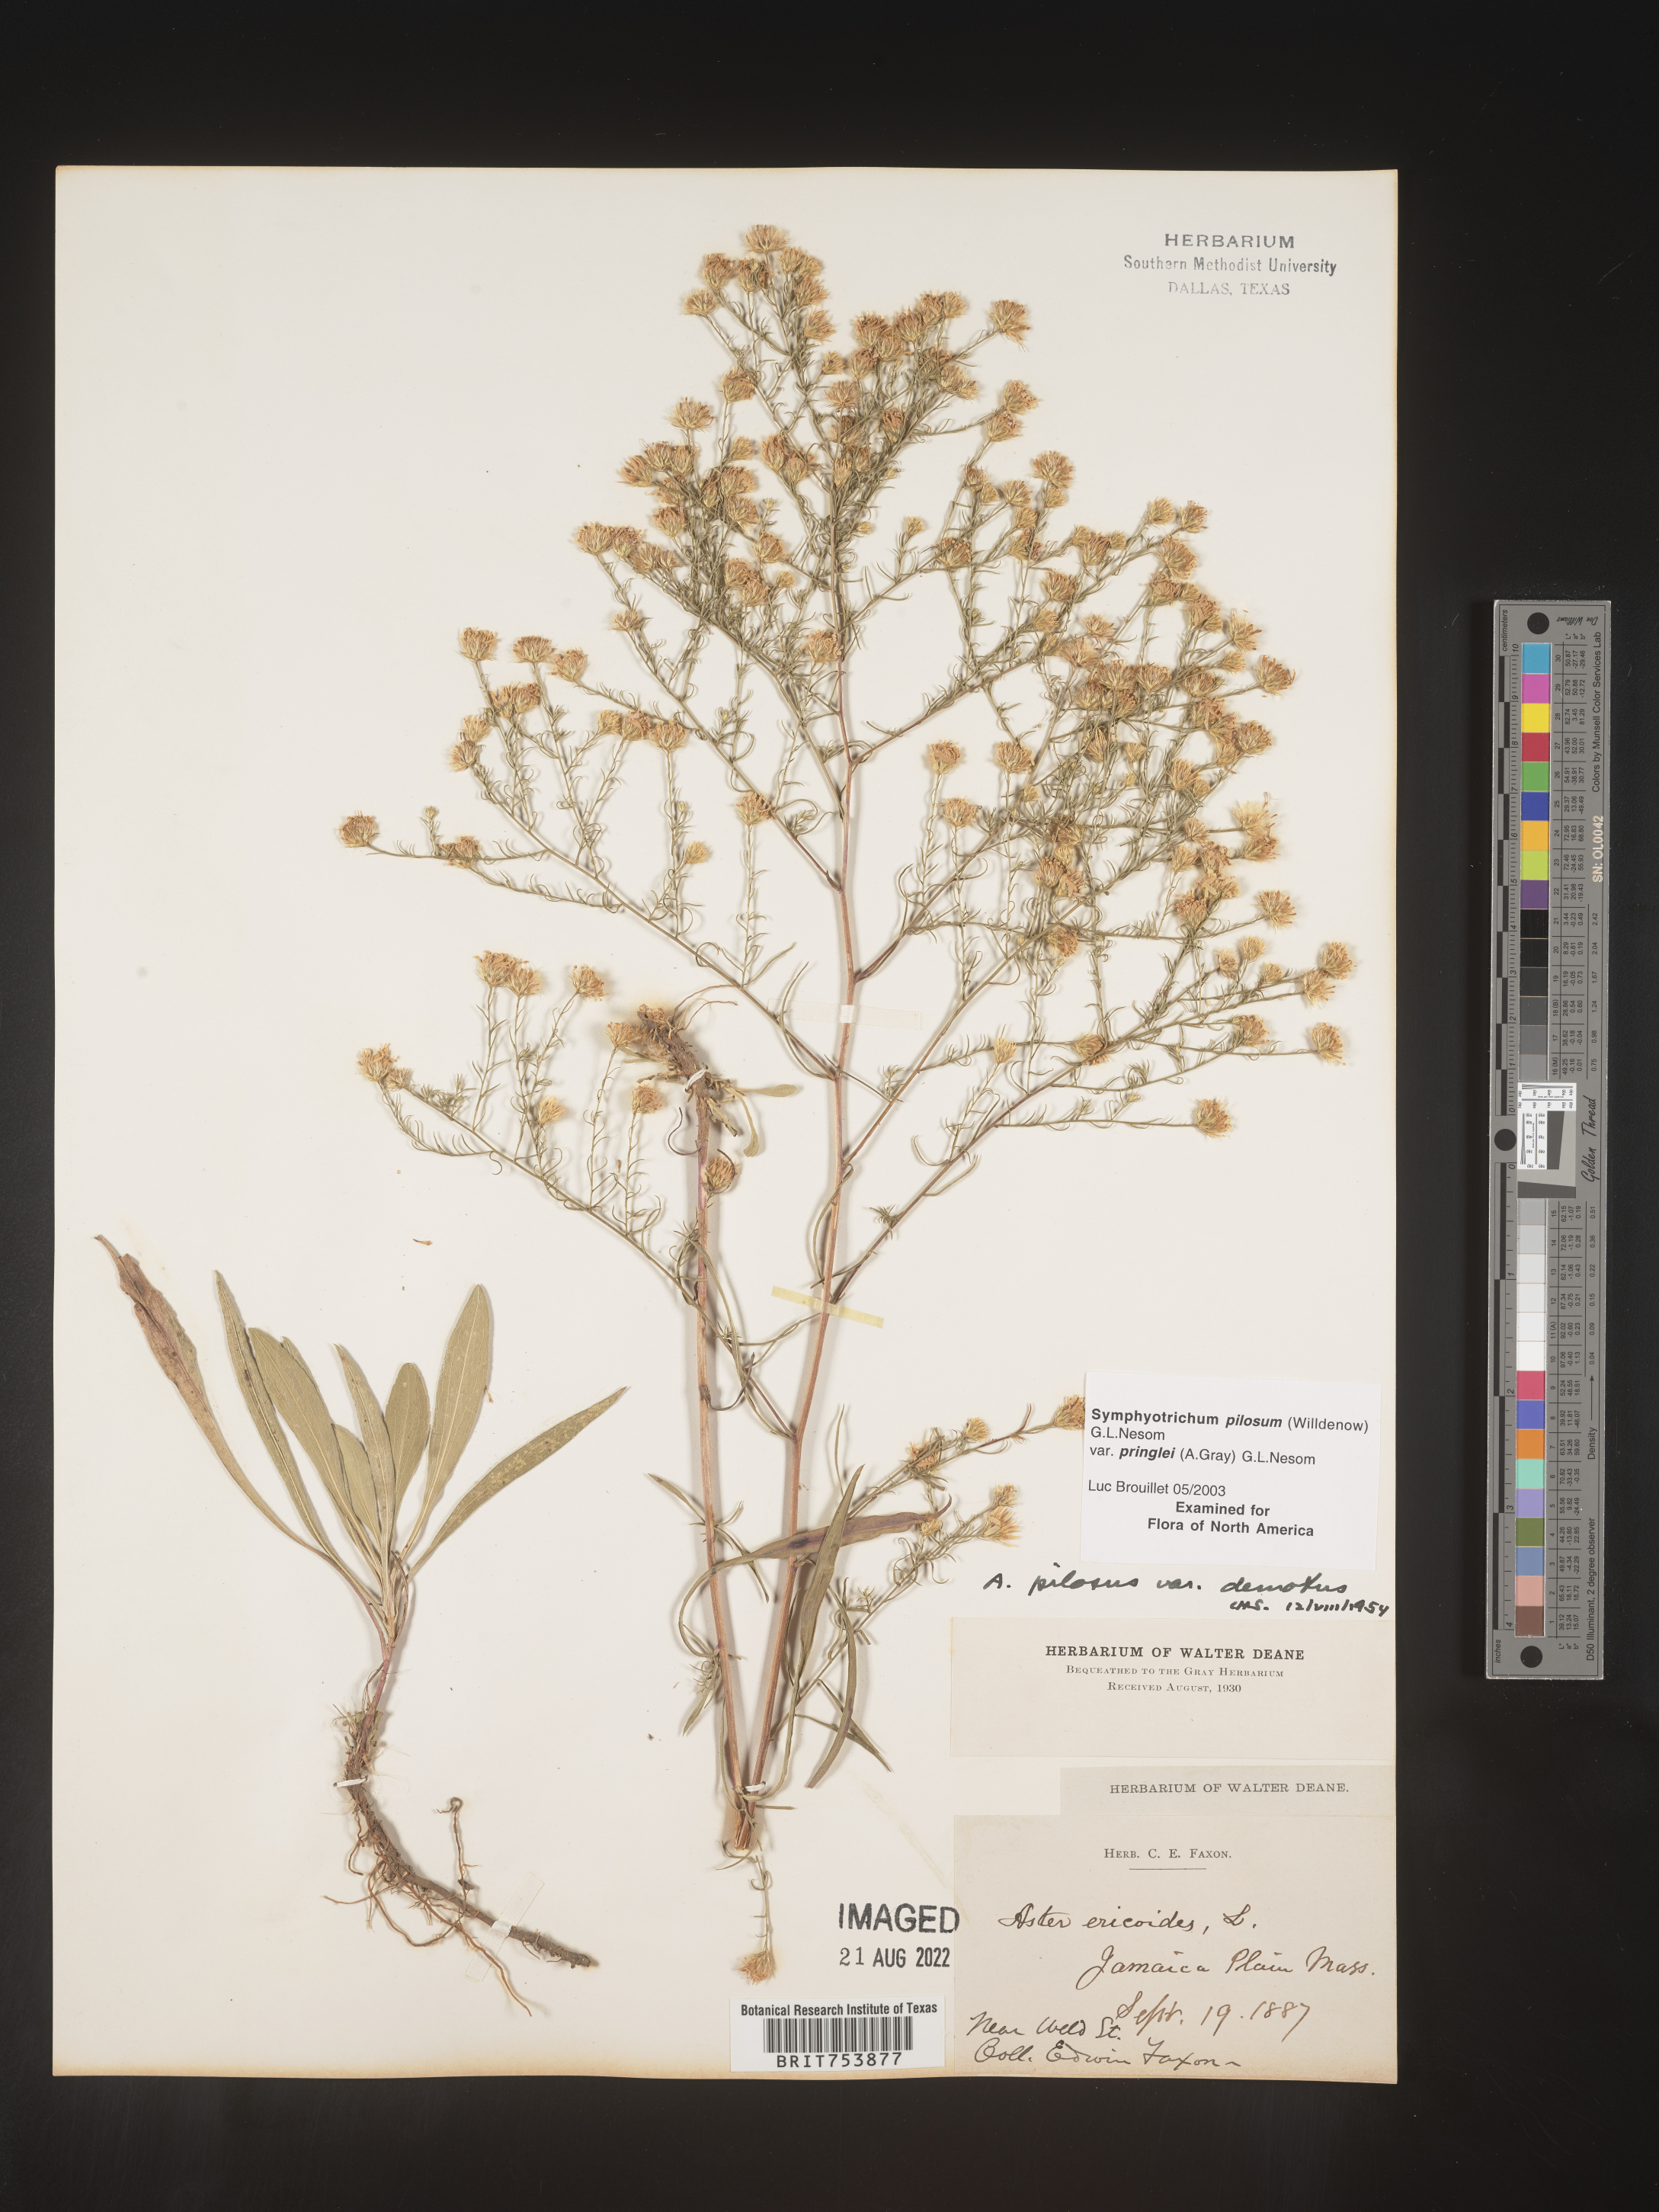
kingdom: Plantae
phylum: Tracheophyta
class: Magnoliopsida
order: Asterales
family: Asteraceae
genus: Symphyotrichum
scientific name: Symphyotrichum pilosum
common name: Awl aster
